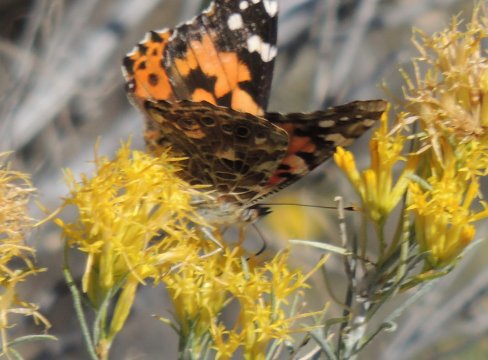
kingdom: Animalia
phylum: Arthropoda
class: Insecta
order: Lepidoptera
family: Nymphalidae
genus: Vanessa
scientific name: Vanessa cardui
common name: Painted Lady
